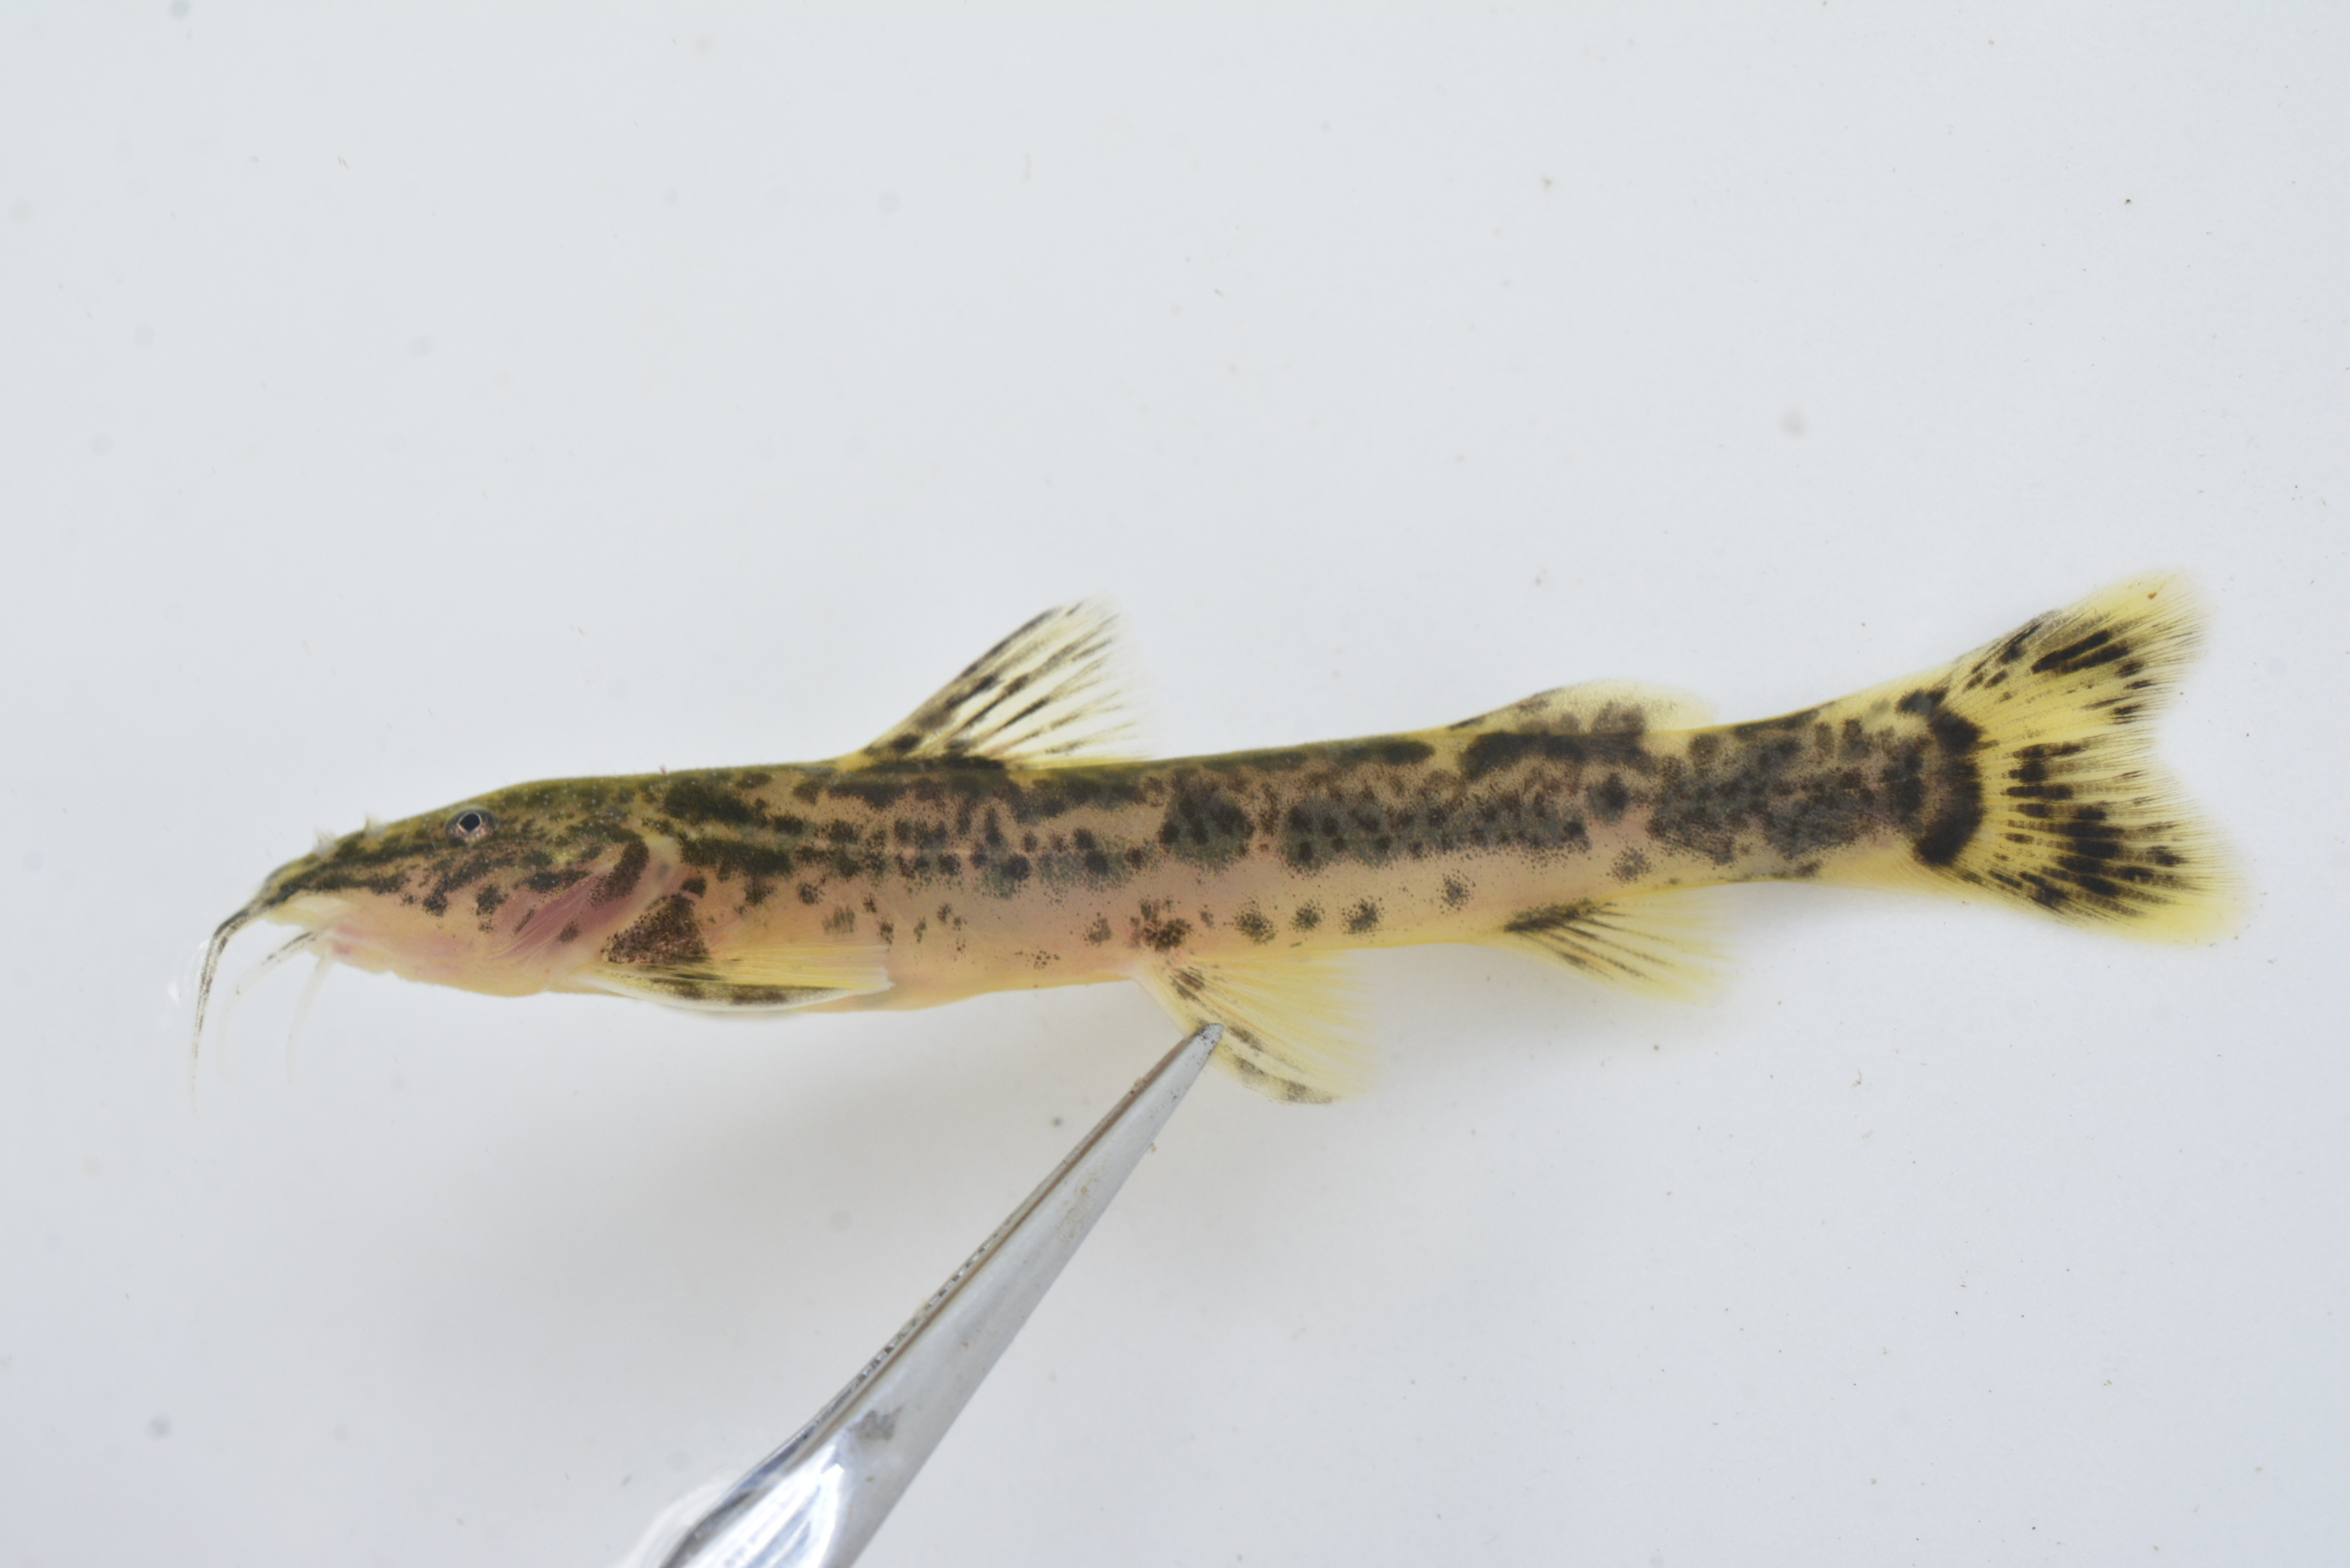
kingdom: Animalia
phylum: Chordata
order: Siluriformes
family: Amphiliidae
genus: Amphilius
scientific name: Amphilius uranoscopus
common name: Stargazer mountain catfish
